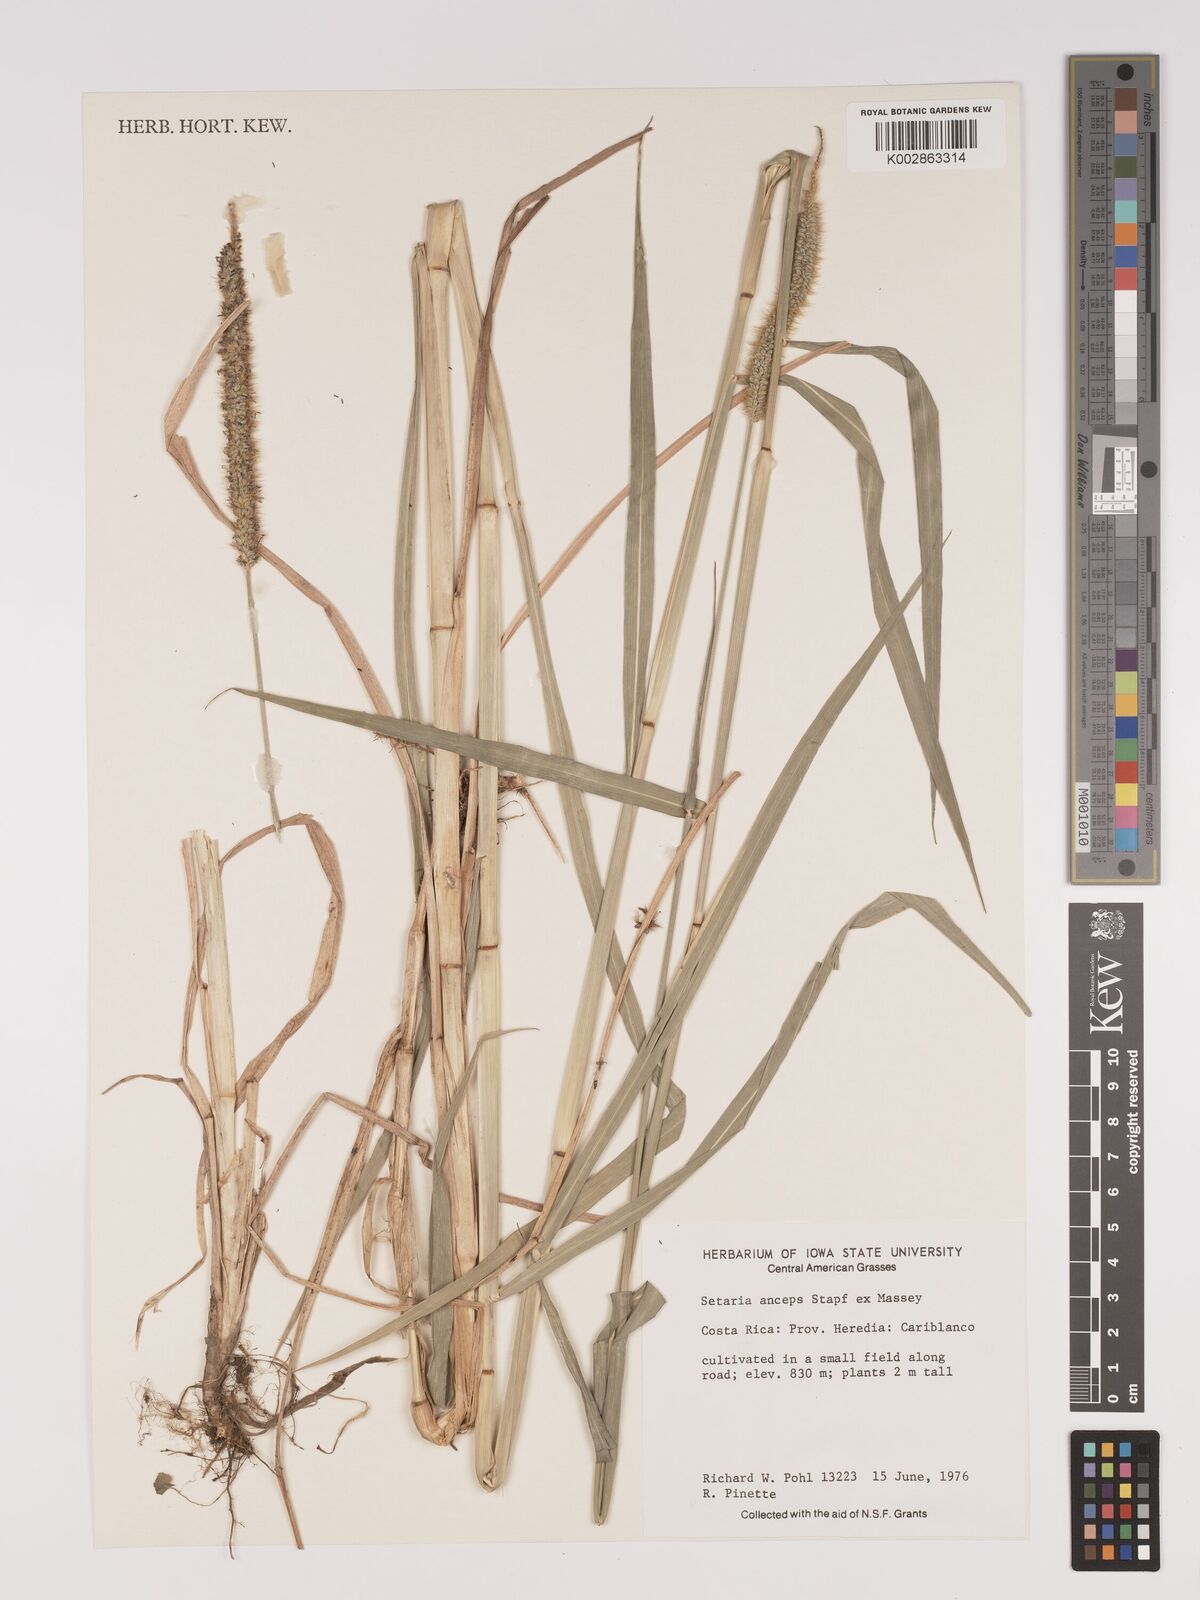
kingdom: Plantae
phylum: Tracheophyta
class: Liliopsida
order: Poales
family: Poaceae
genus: Setaria
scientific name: Setaria sphacelata
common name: African bristlegrass
